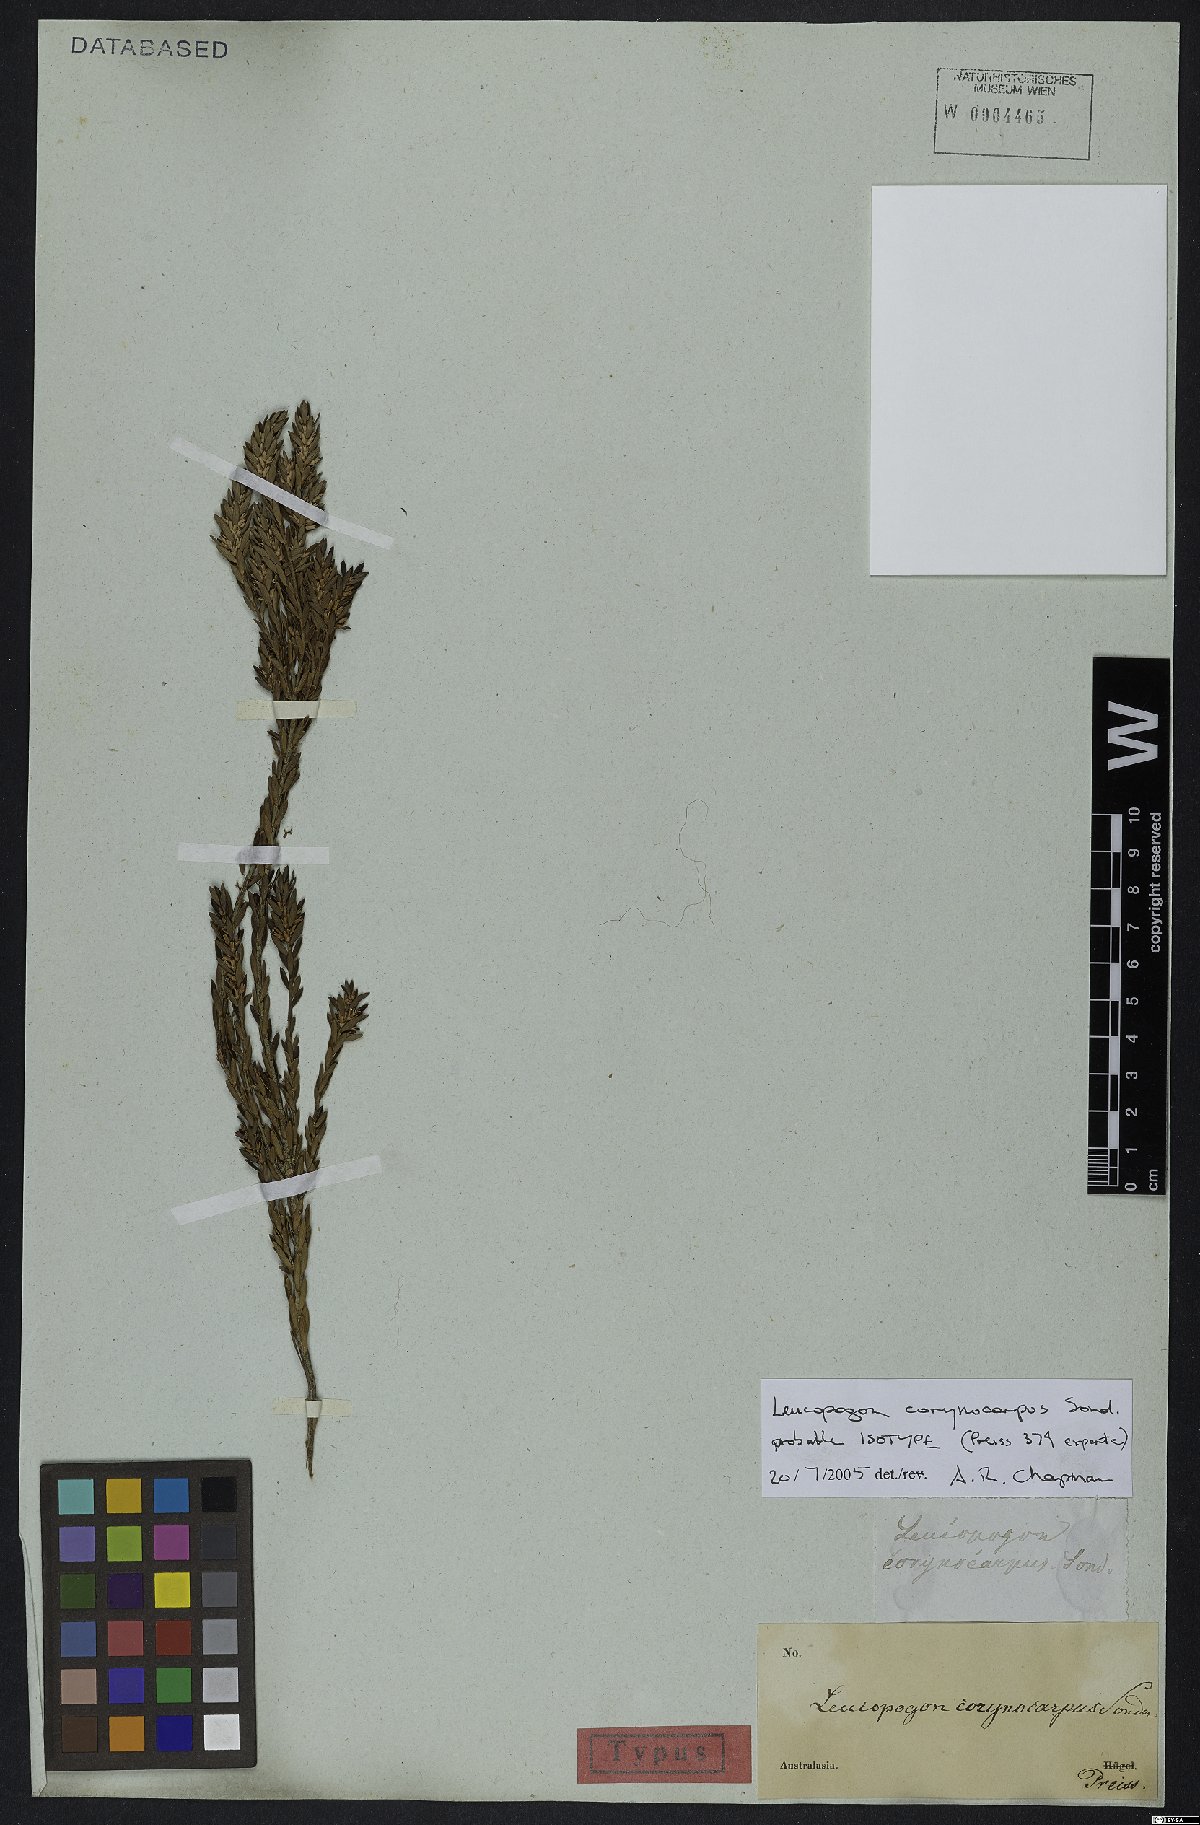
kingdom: Plantae
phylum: Tracheophyta
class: Magnoliopsida
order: Ericales
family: Ericaceae
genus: Styphelia
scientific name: Styphelia corynocarpa
